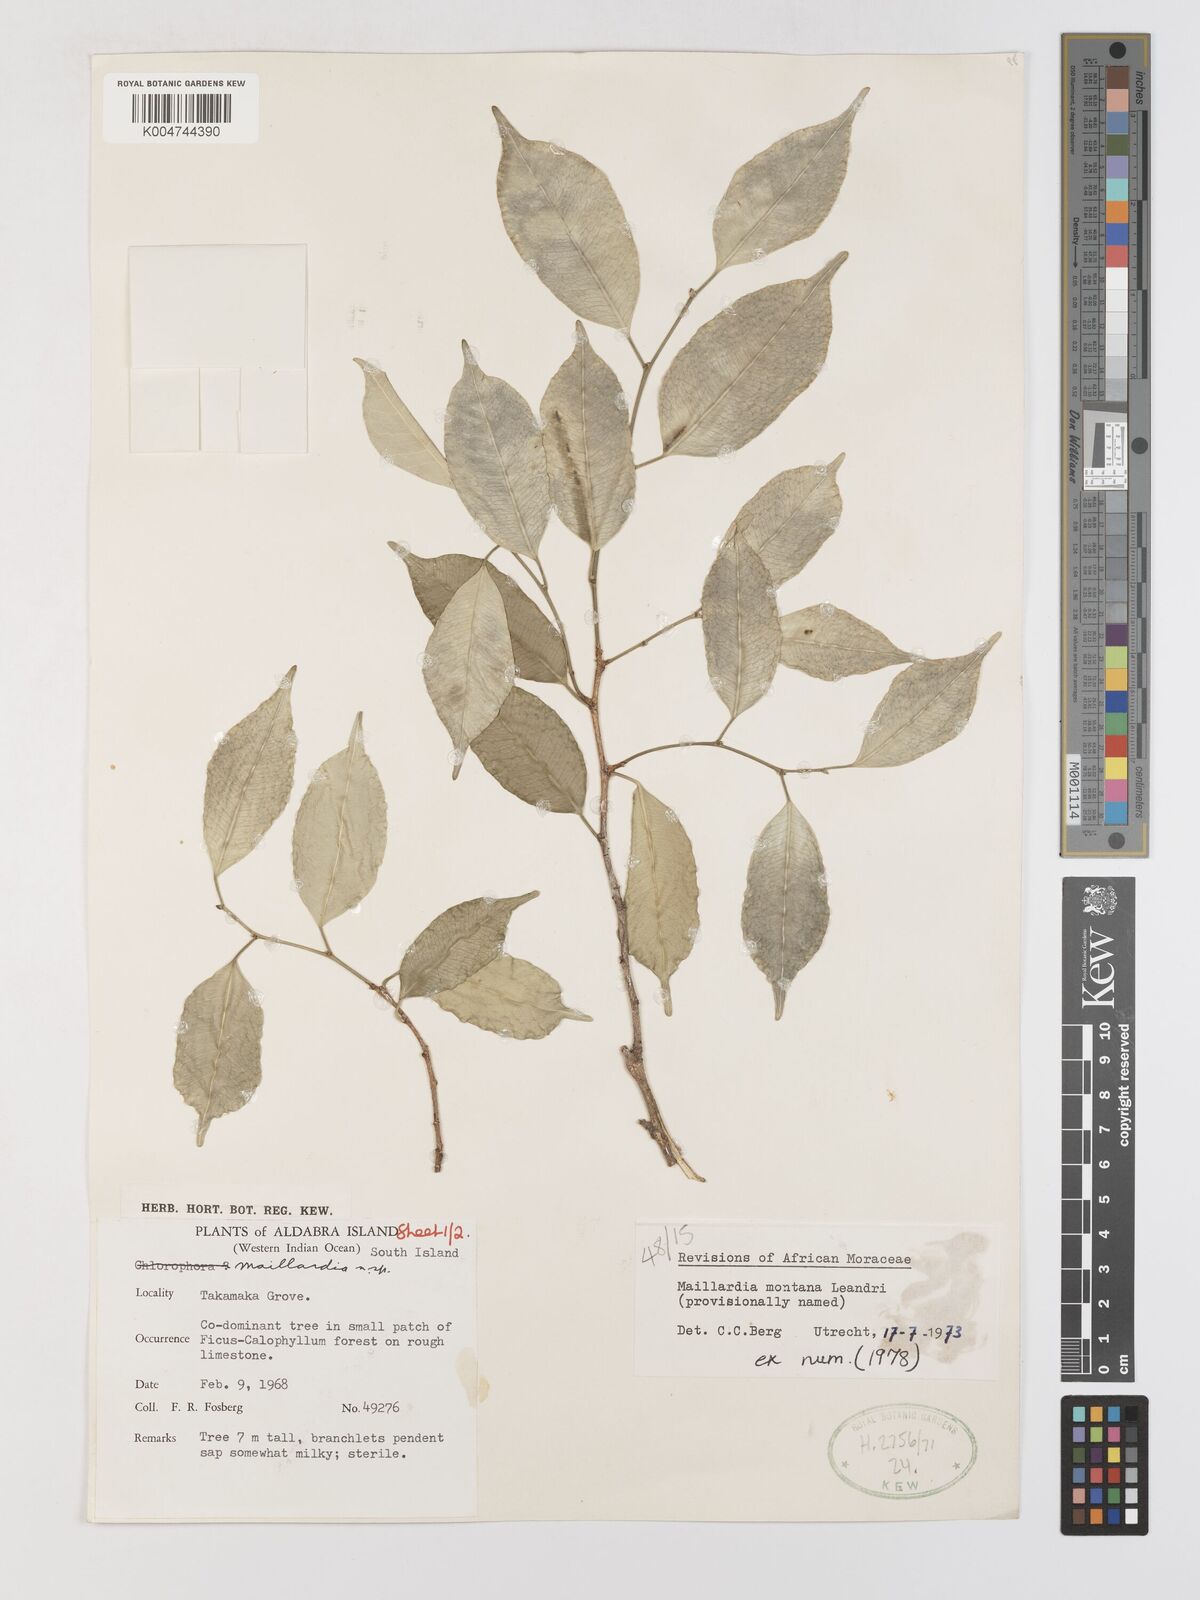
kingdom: Plantae
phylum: Tracheophyta
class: Magnoliopsida
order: Rosales
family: Moraceae
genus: Maillardia
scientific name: Maillardia montana
